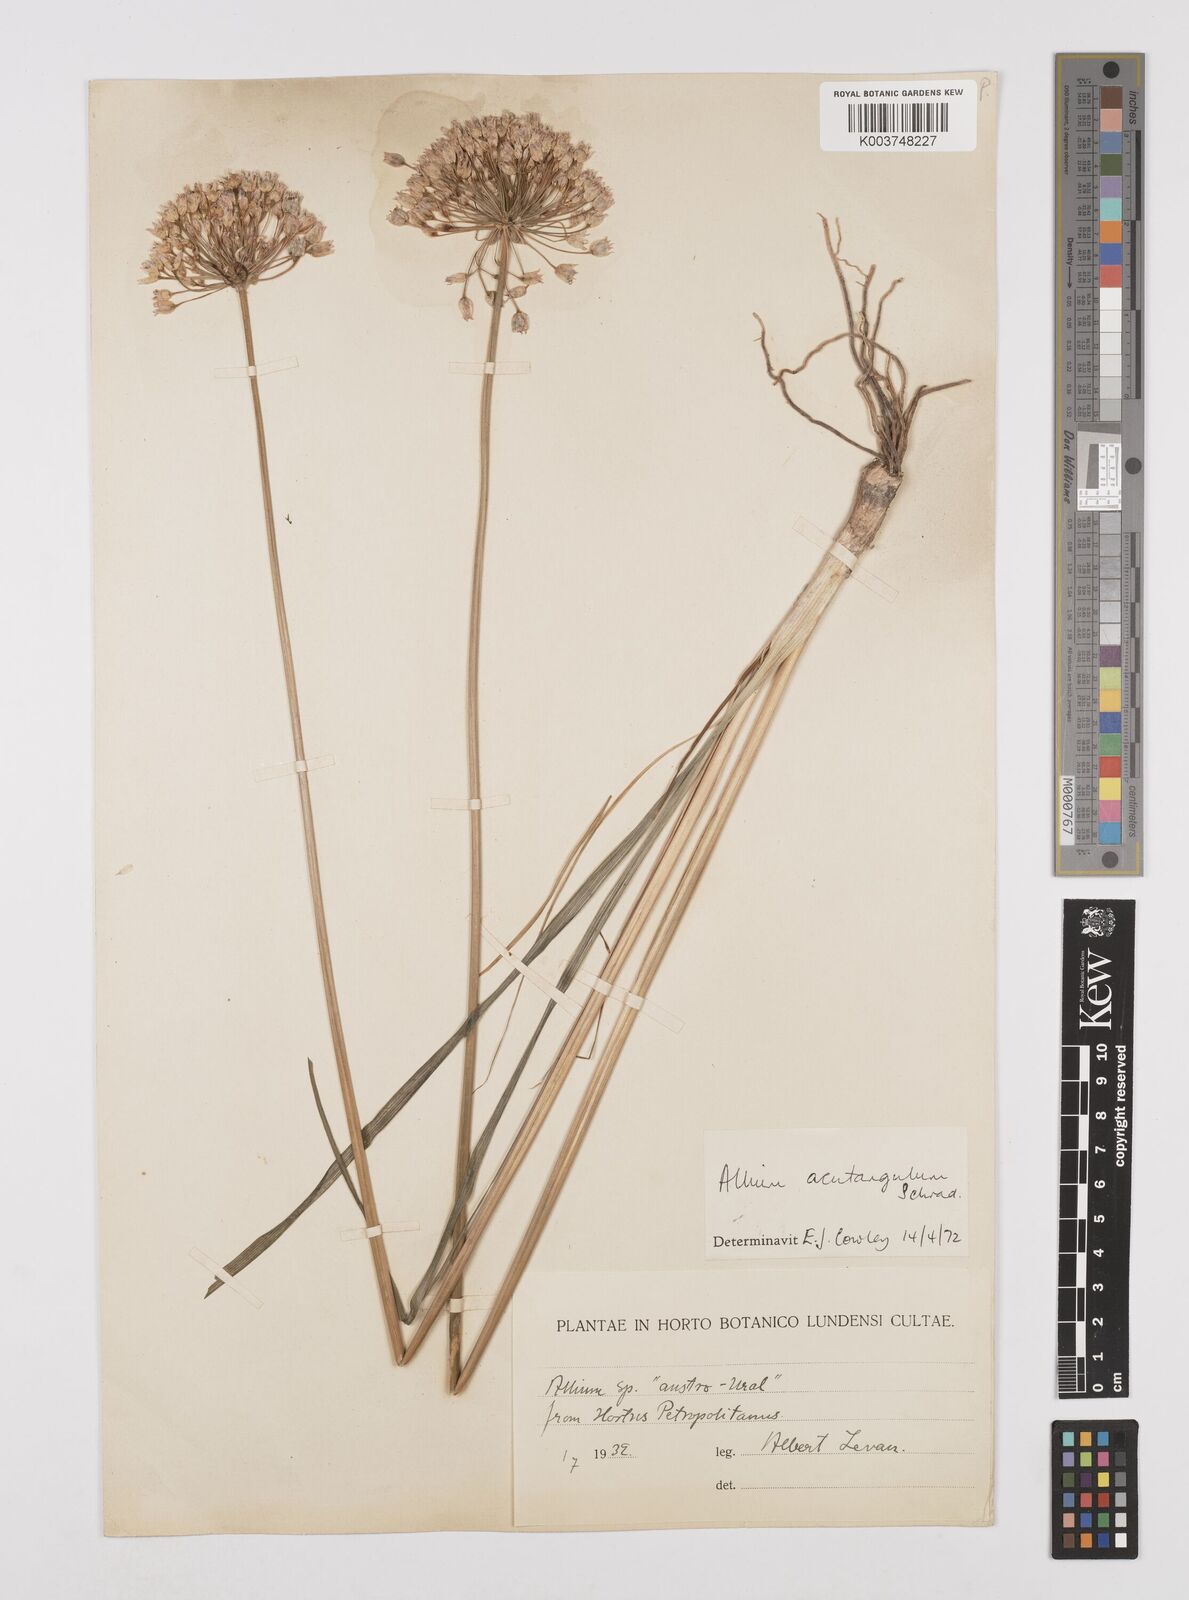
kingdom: Plantae
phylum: Tracheophyta
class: Liliopsida
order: Asparagales
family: Amaryllidaceae
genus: Allium
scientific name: Allium angulosum
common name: Mouse garlic
